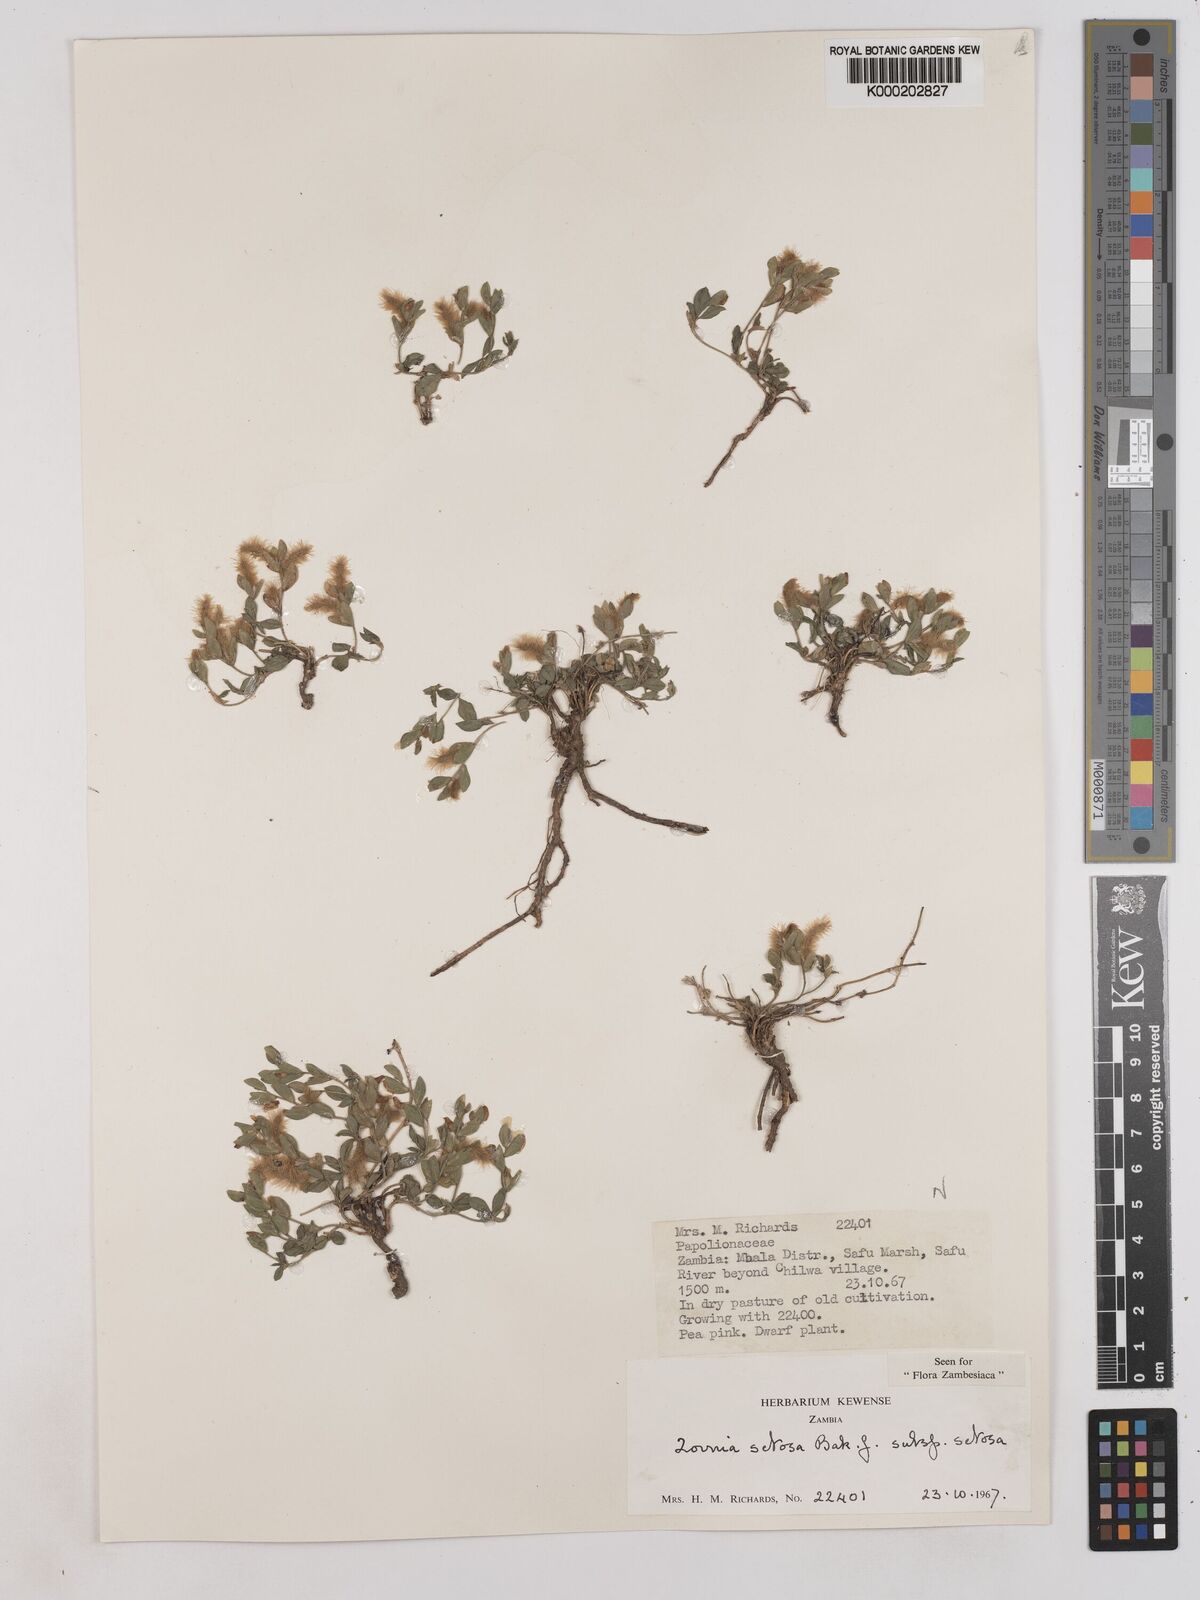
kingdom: Plantae
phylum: Tracheophyta
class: Magnoliopsida
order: Fabales
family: Fabaceae
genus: Zornia
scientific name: Zornia setosa
